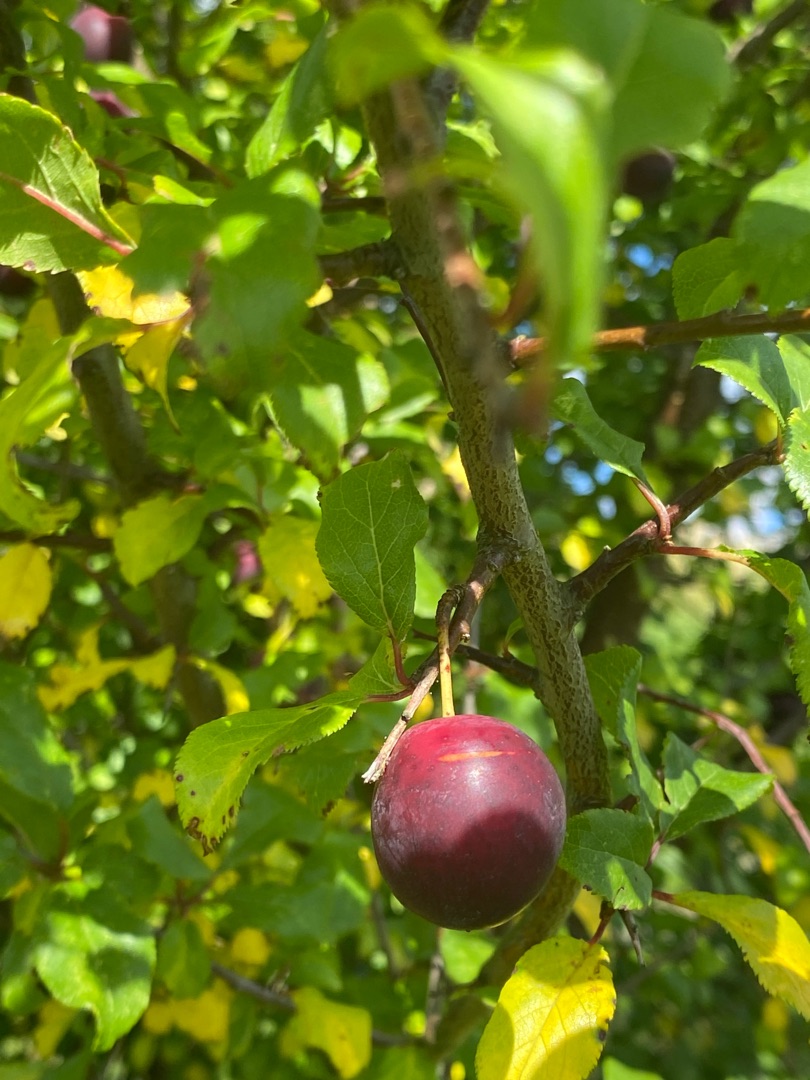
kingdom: Plantae
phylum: Tracheophyta
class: Magnoliopsida
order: Rosales
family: Rosaceae
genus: Prunus
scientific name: Prunus cerasifera
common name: Mirabel
